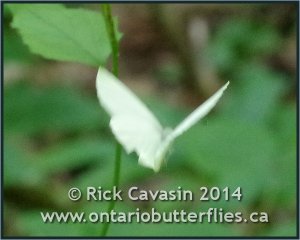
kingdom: Animalia
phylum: Arthropoda
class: Insecta
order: Lepidoptera
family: Pieridae
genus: Pieris
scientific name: Pieris oleracea
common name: Mustard White
